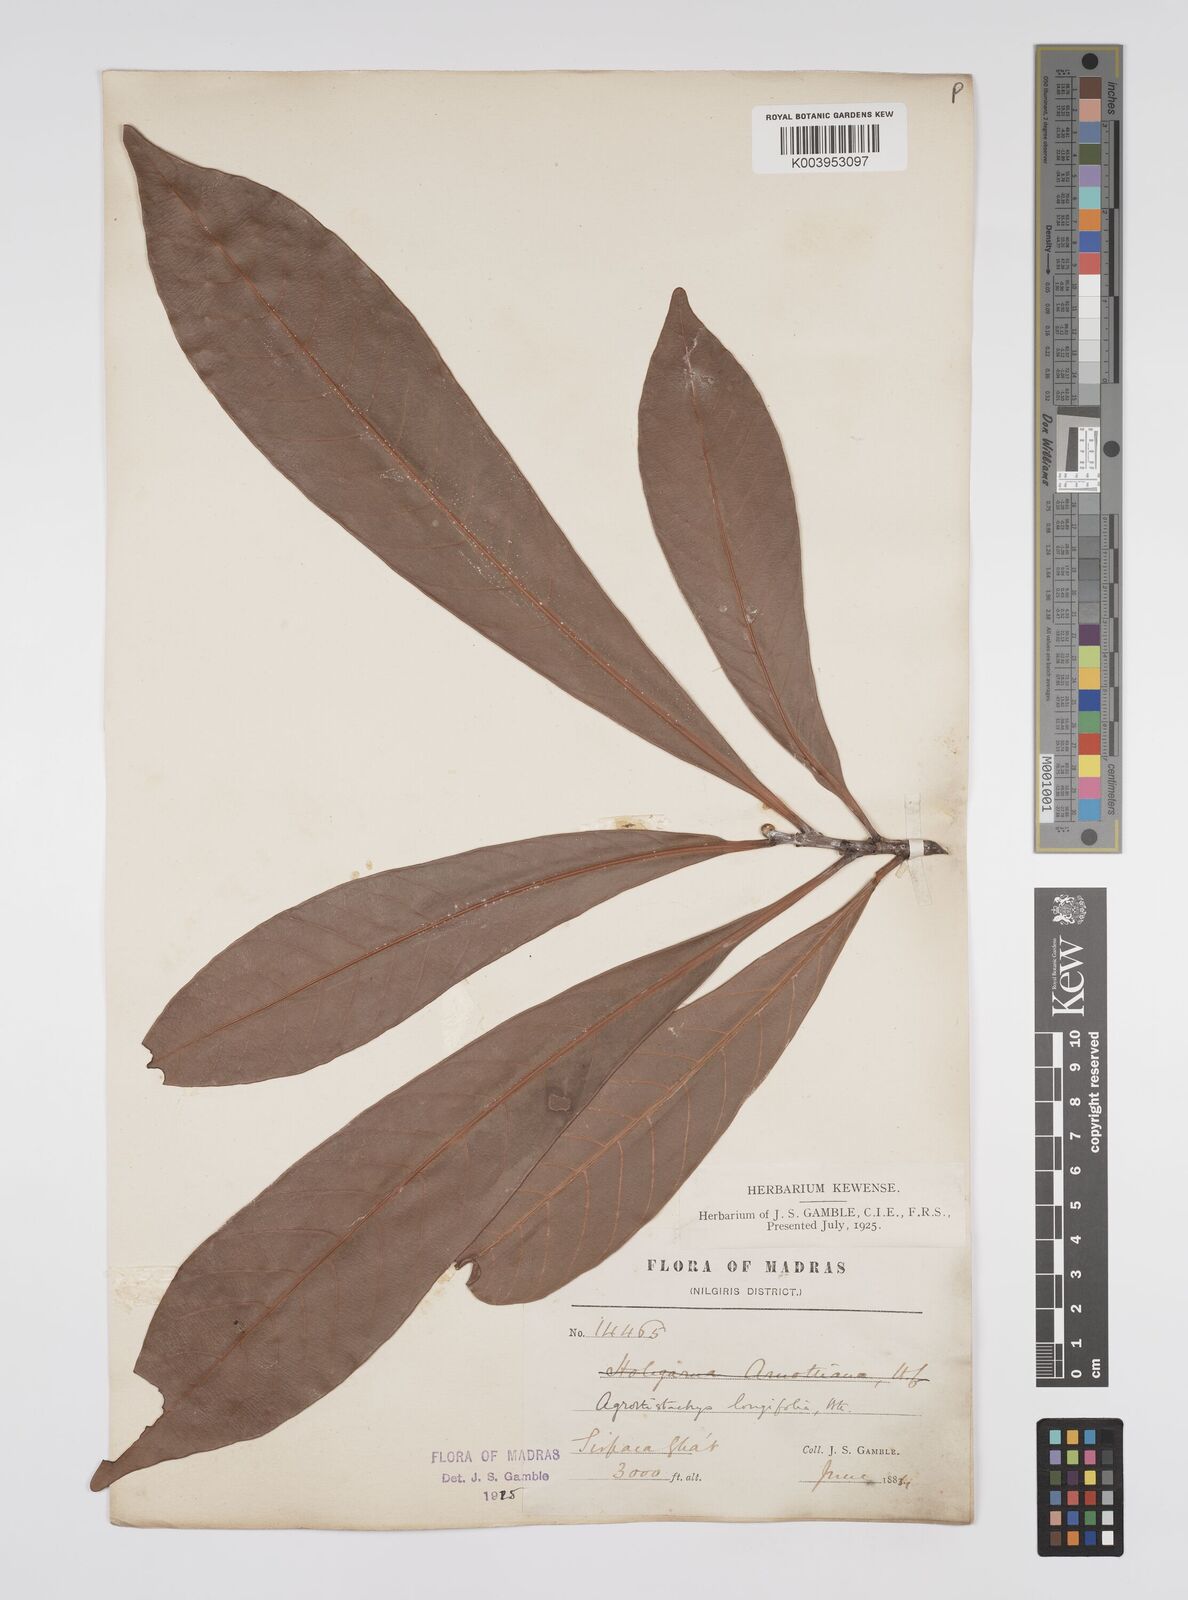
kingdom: Plantae
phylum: Tracheophyta
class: Magnoliopsida
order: Malpighiales
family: Euphorbiaceae
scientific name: Euphorbiaceae
